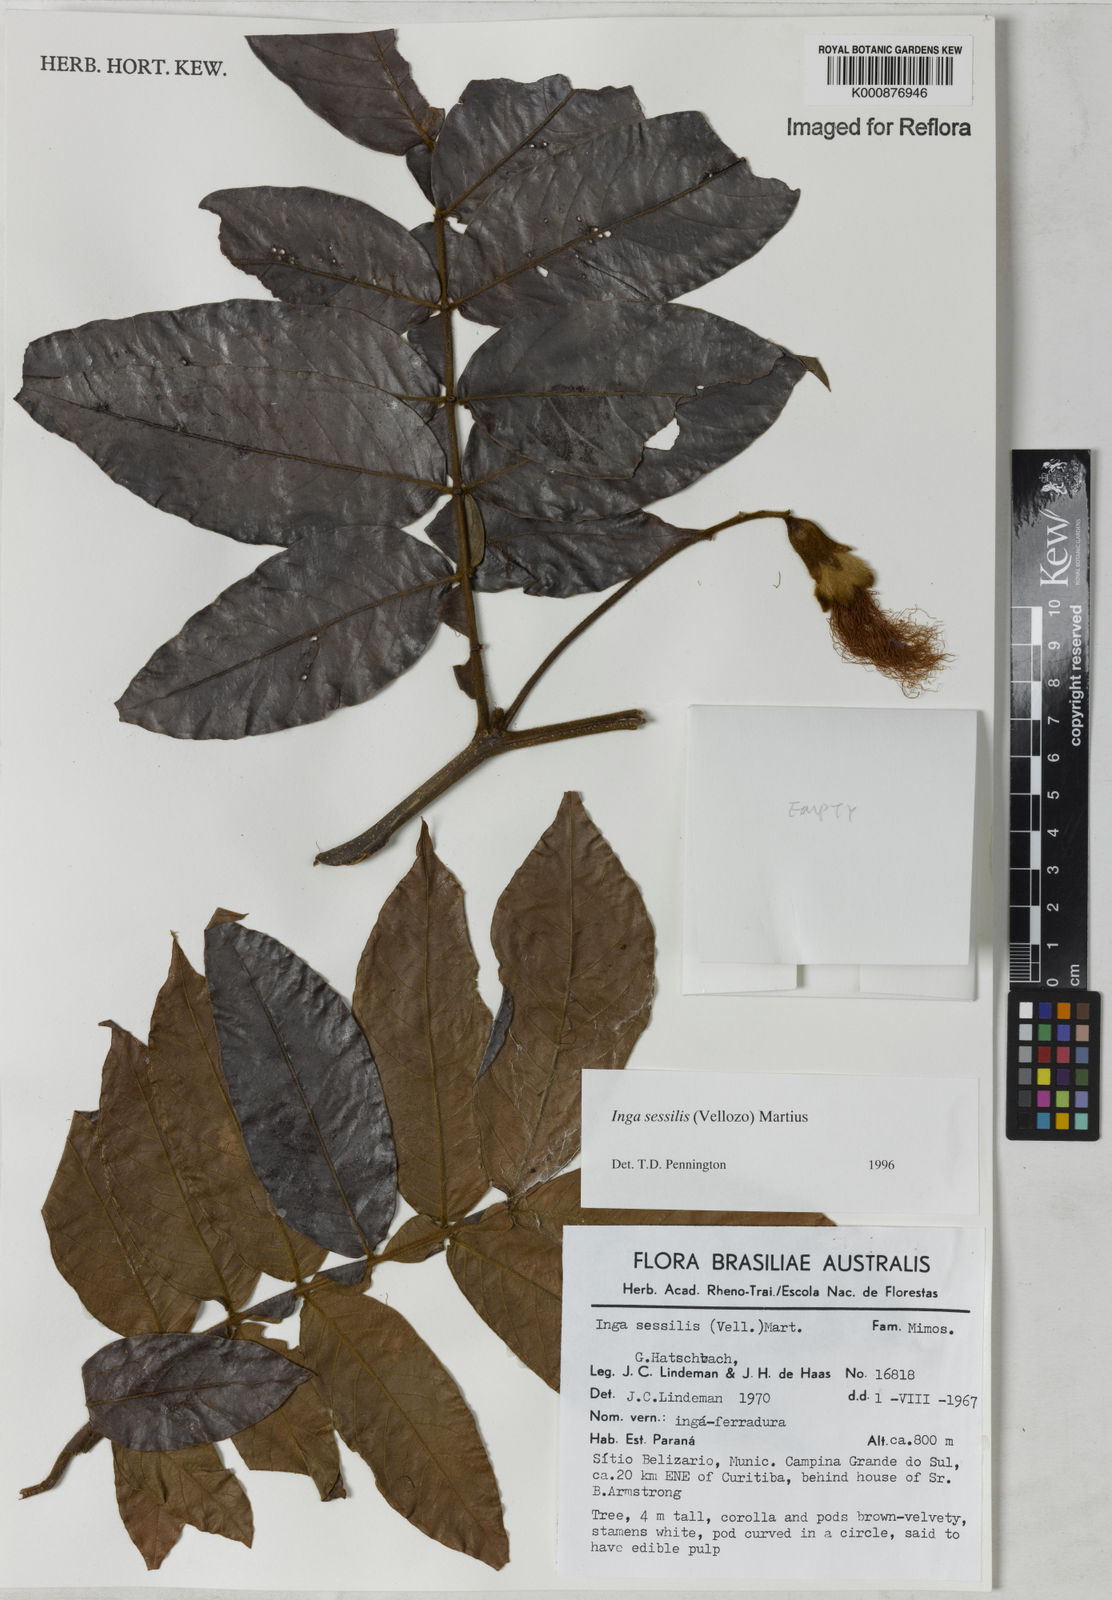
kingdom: Plantae
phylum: Tracheophyta
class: Magnoliopsida
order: Fabales
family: Fabaceae
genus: Inga
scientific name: Inga sessilis
